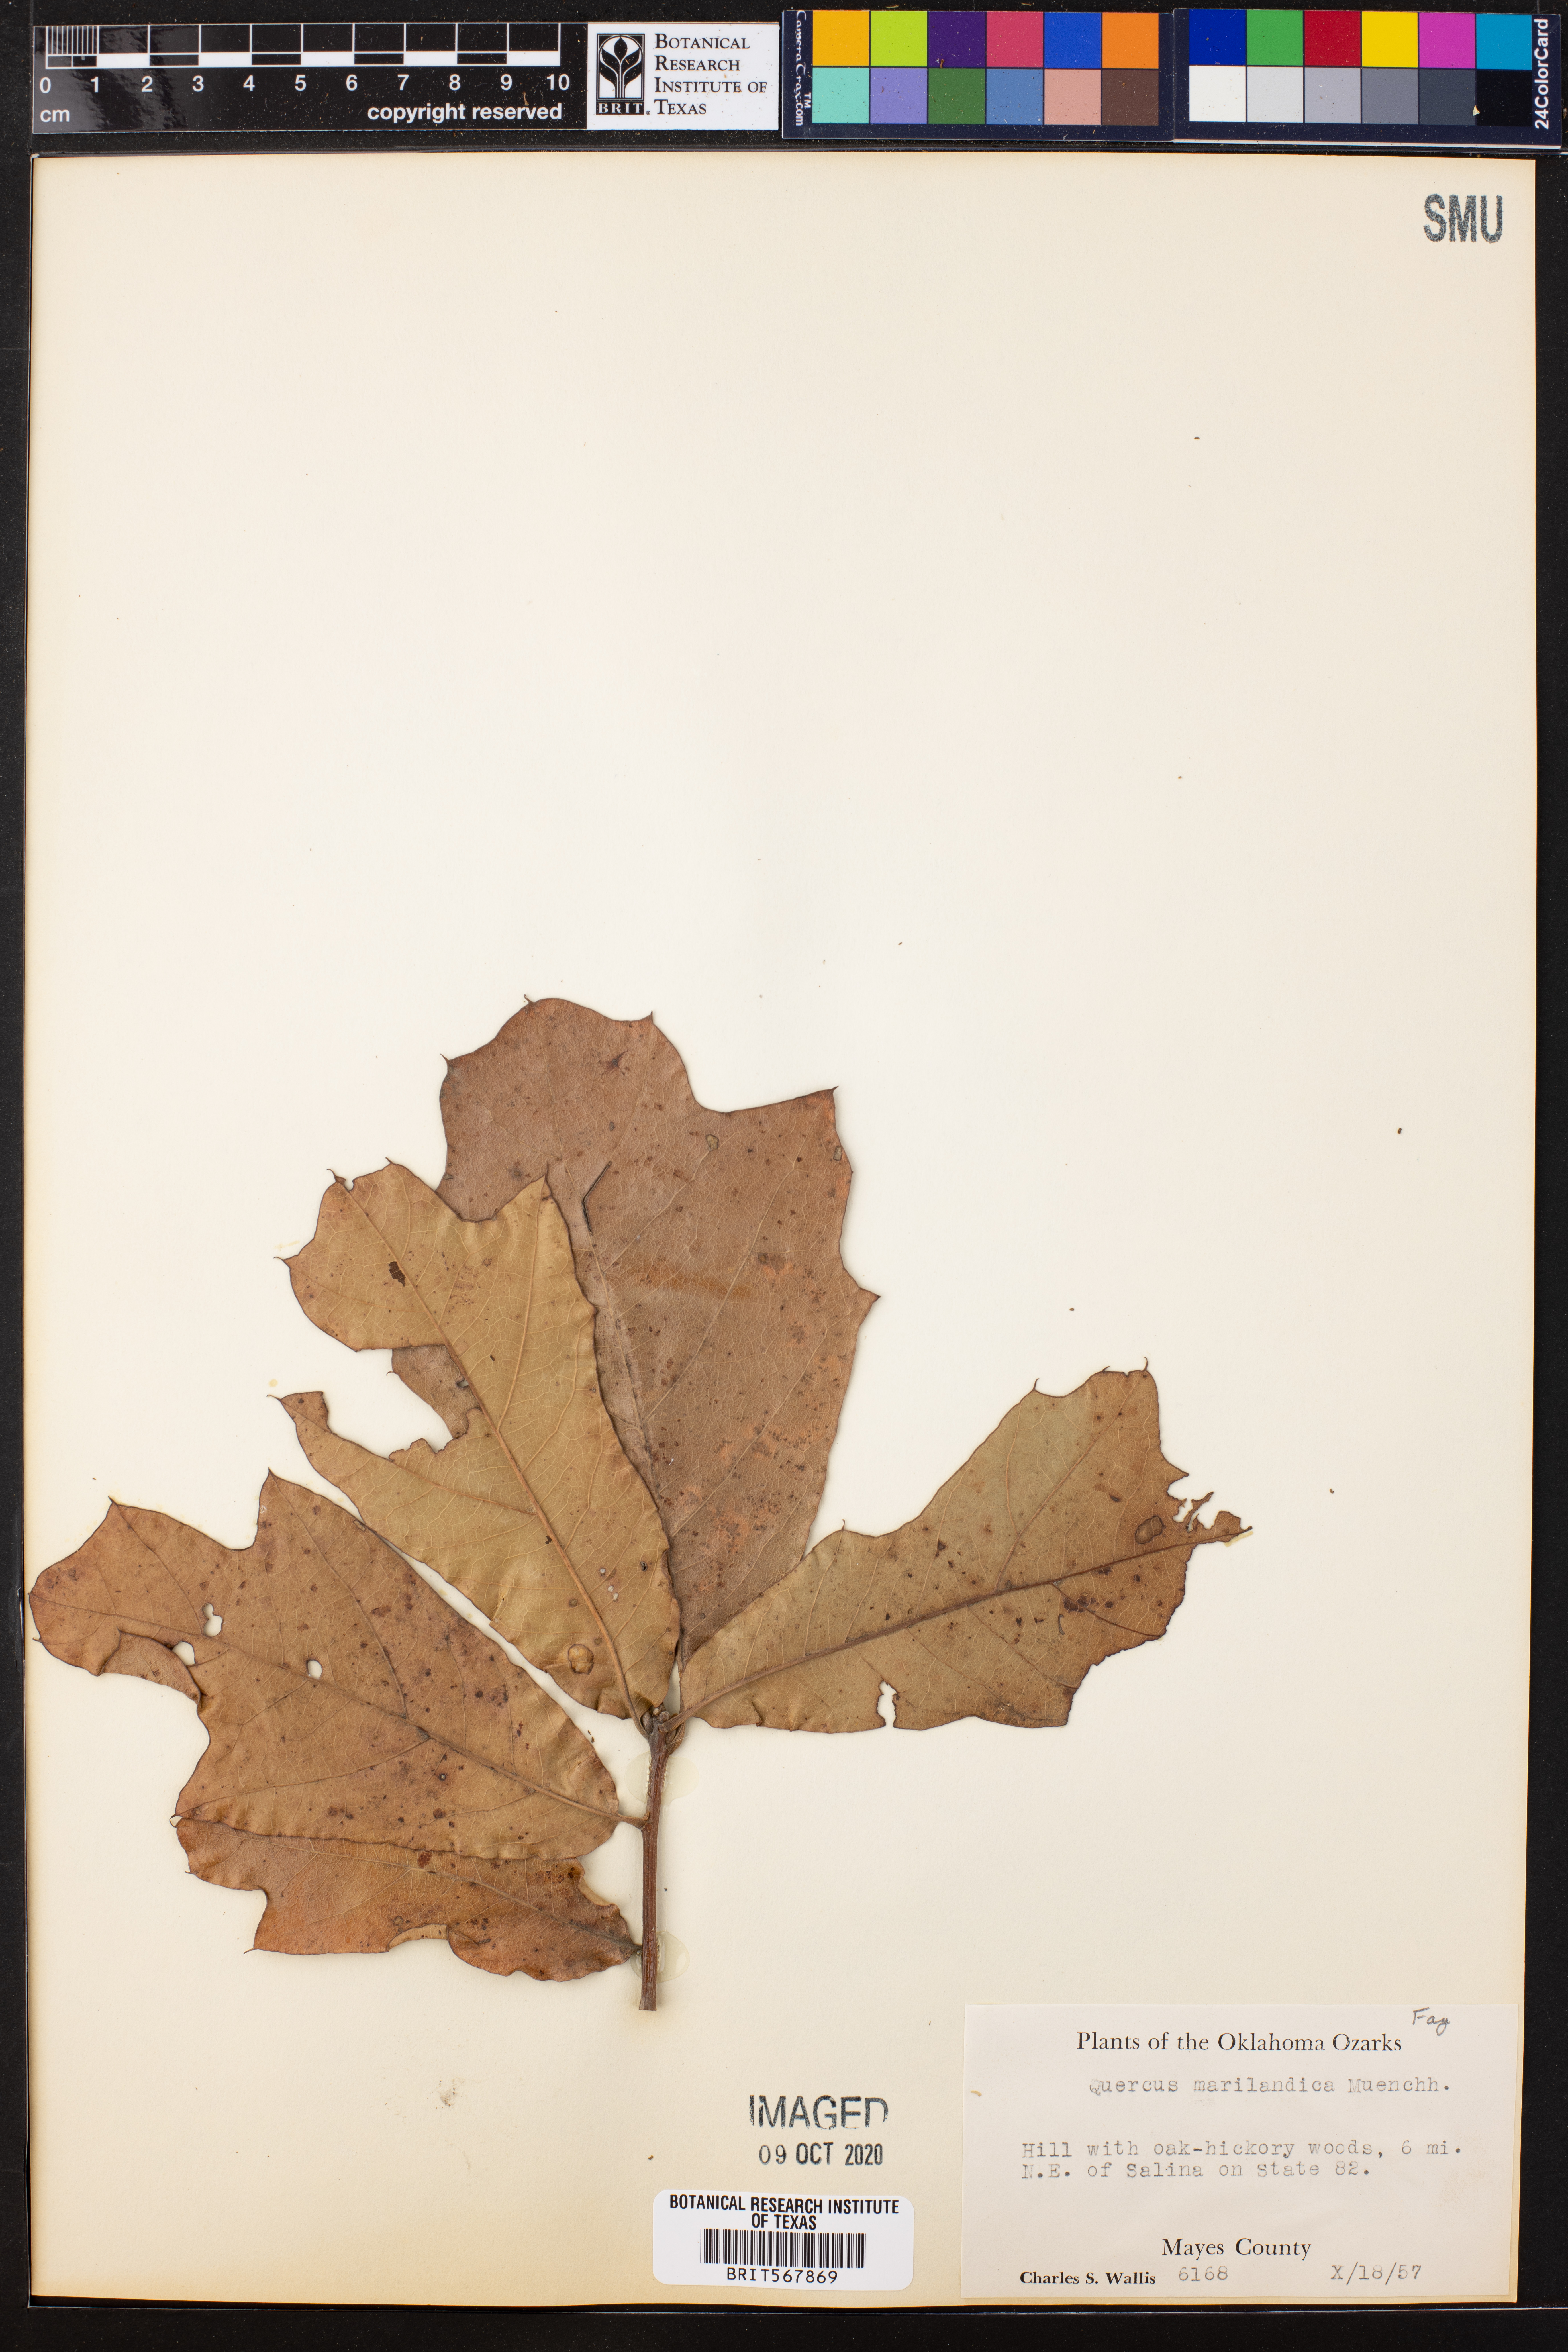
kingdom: Plantae
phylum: Tracheophyta
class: Magnoliopsida
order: Fagales
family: Fagaceae
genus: Quercus
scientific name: Quercus marilandica
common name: Blackjack oak
